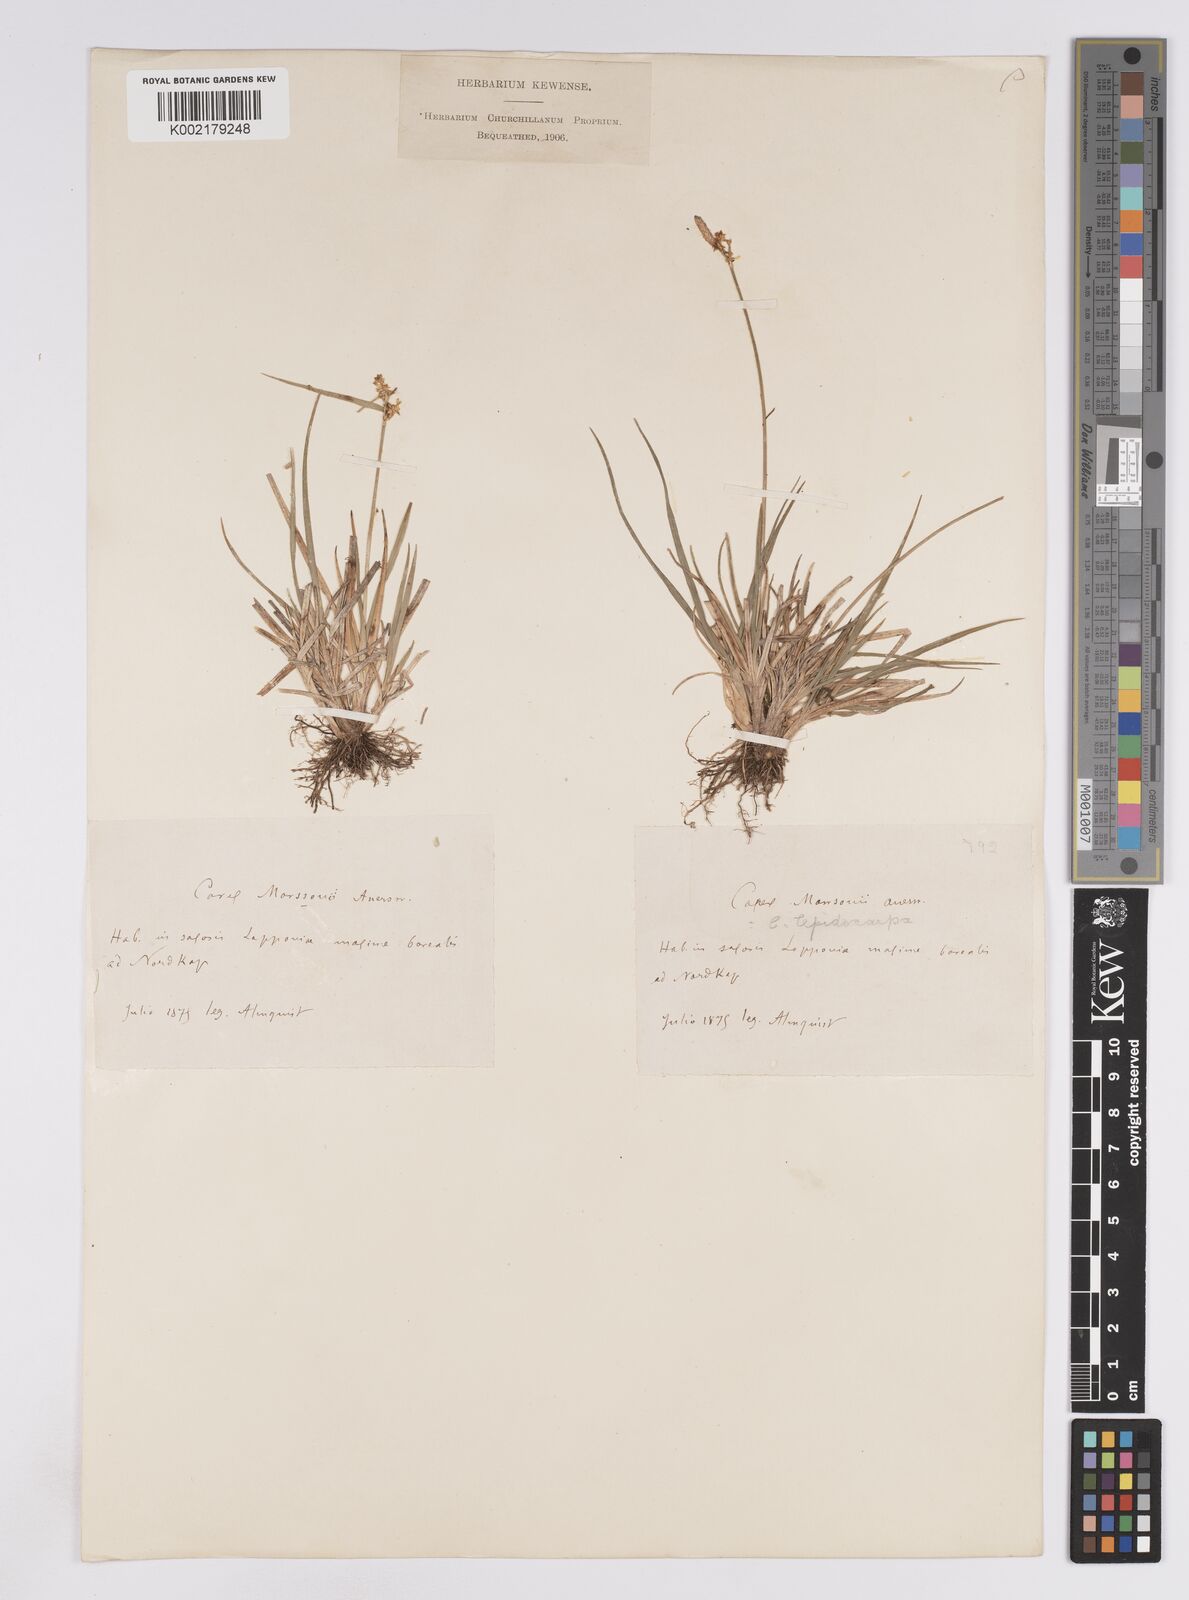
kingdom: Plantae
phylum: Tracheophyta
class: Liliopsida
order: Poales
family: Cyperaceae
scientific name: Cyperaceae
